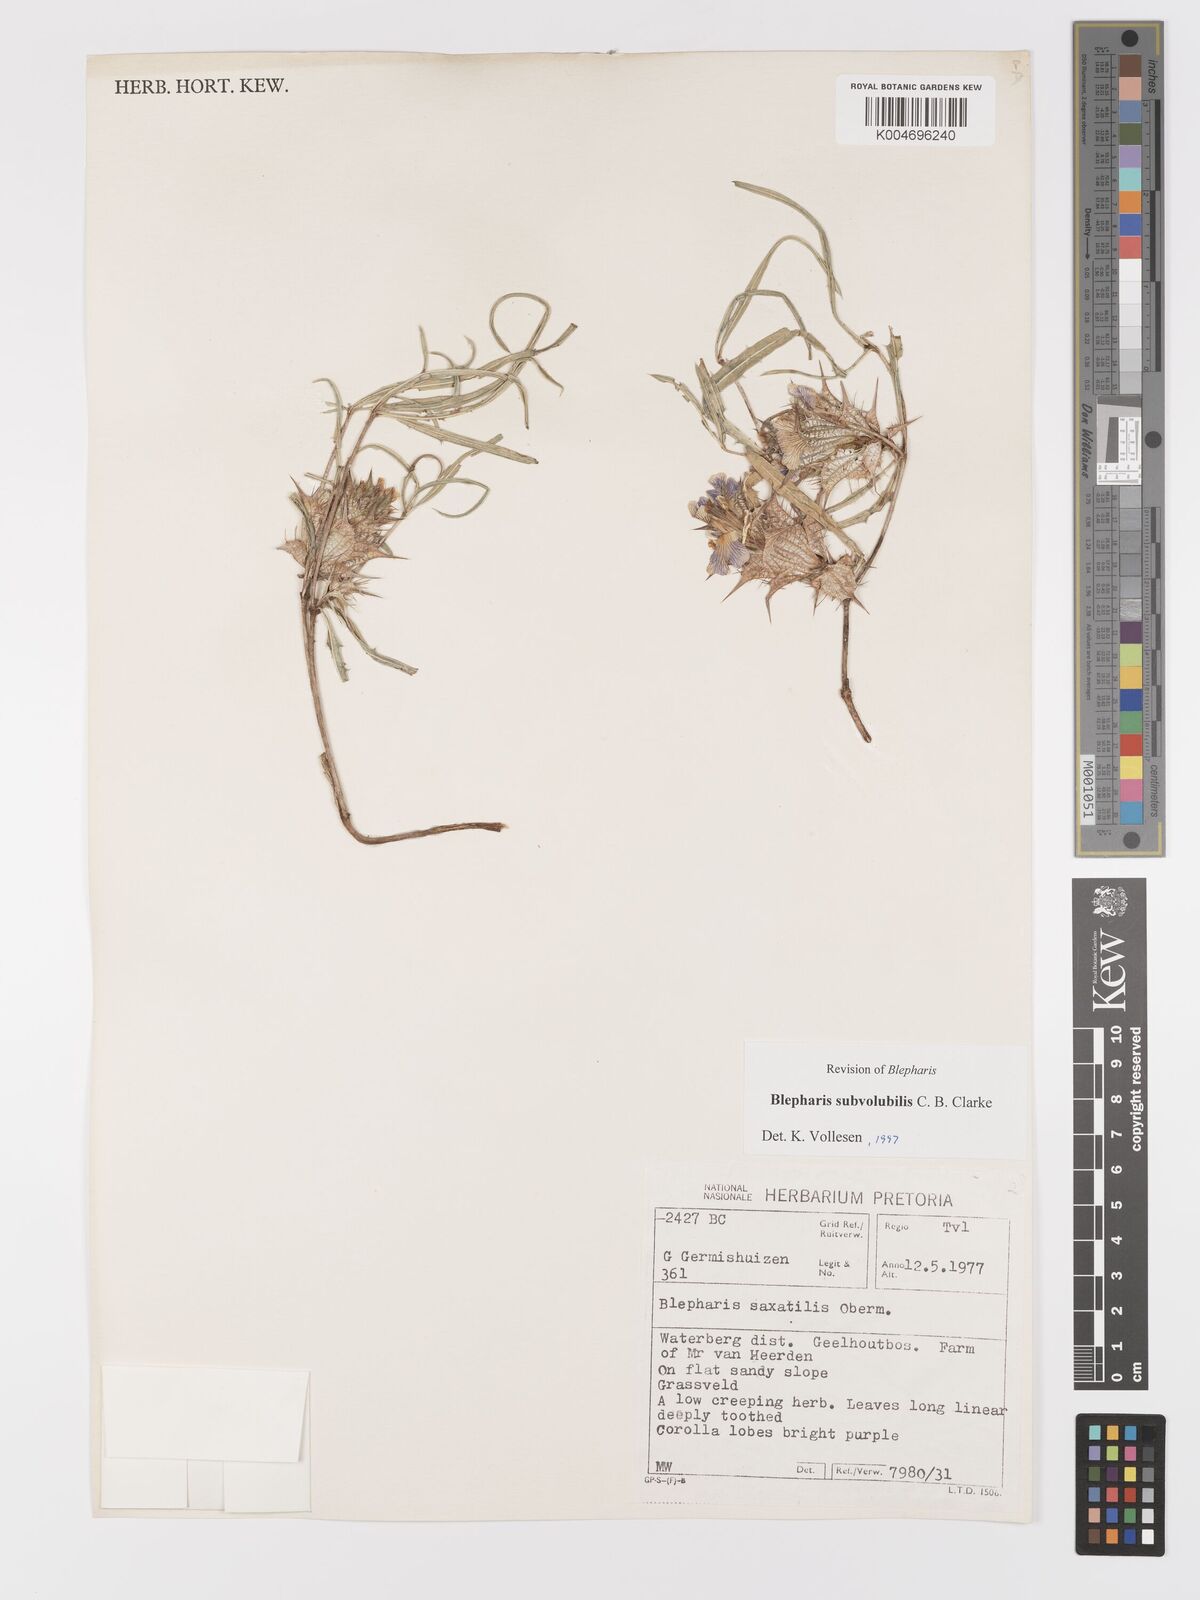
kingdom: Plantae
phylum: Tracheophyta
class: Magnoliopsida
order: Lamiales
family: Acanthaceae
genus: Blepharis
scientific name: Blepharis subvolubilis
